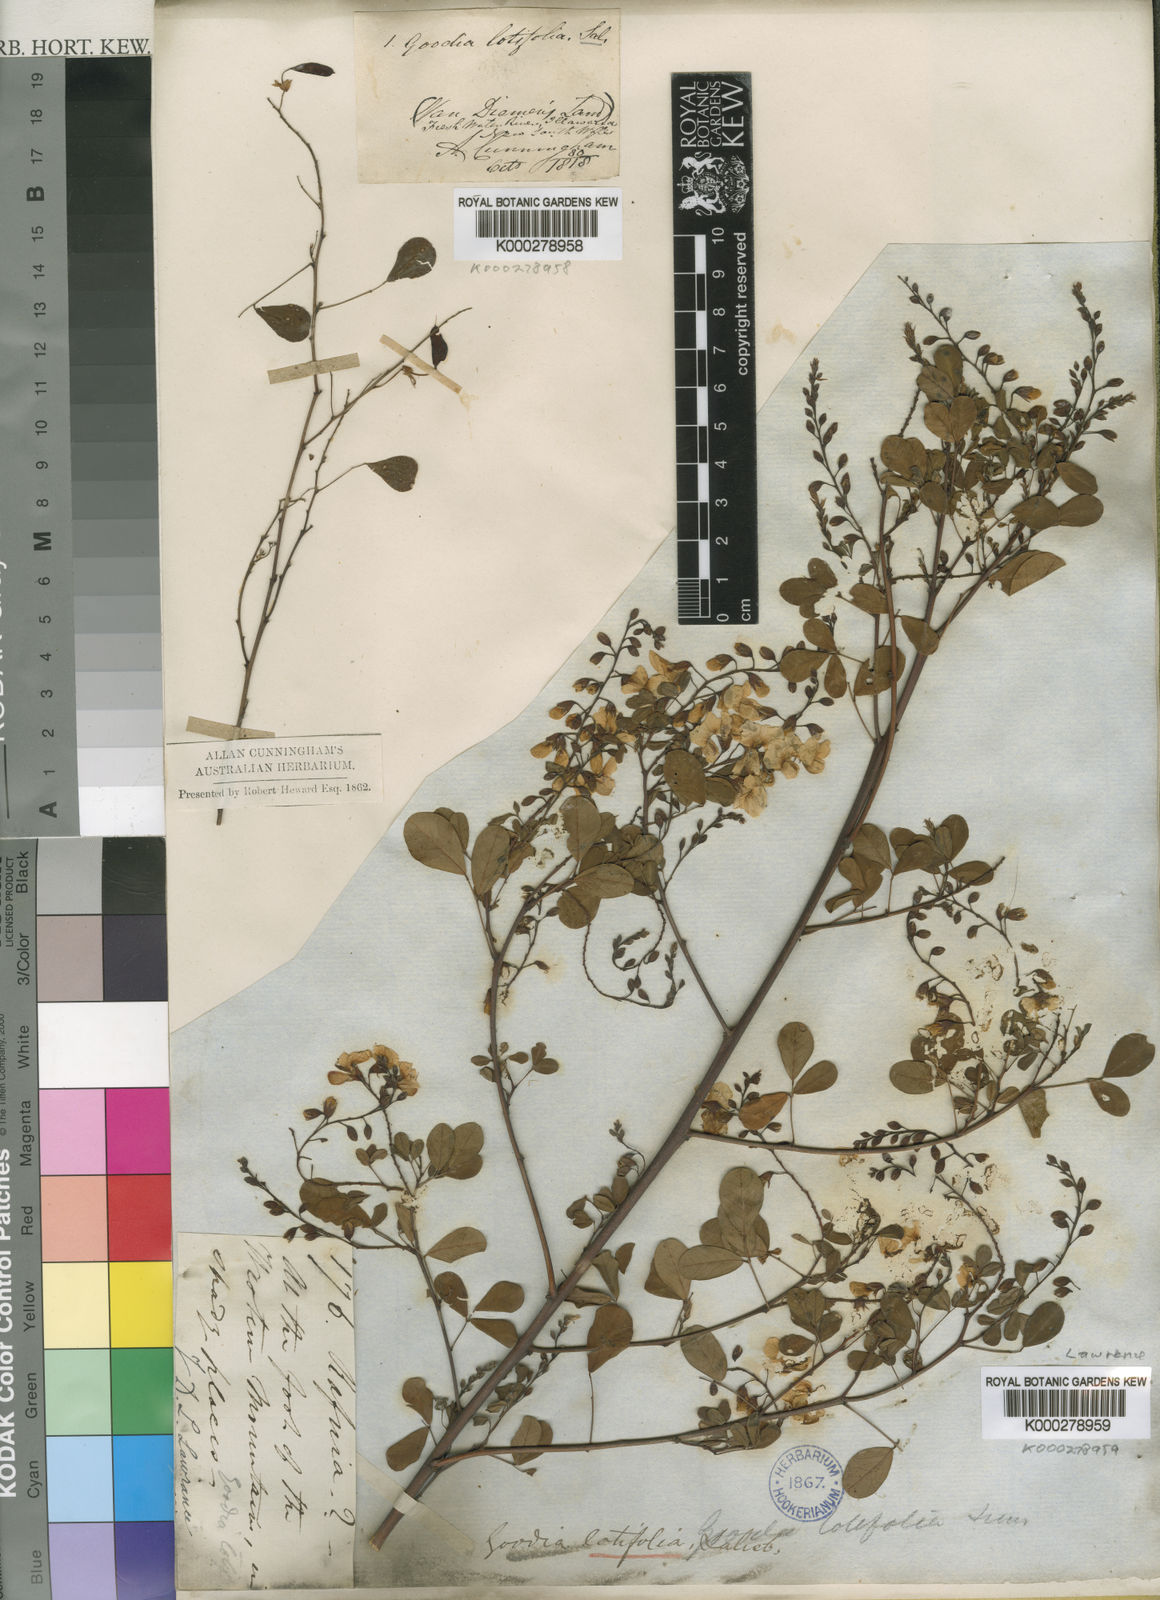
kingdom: Plantae
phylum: Tracheophyta
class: Magnoliopsida
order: Fabales
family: Fabaceae
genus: Goodia
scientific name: Goodia lotifolia
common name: Cloverleaf-poison
